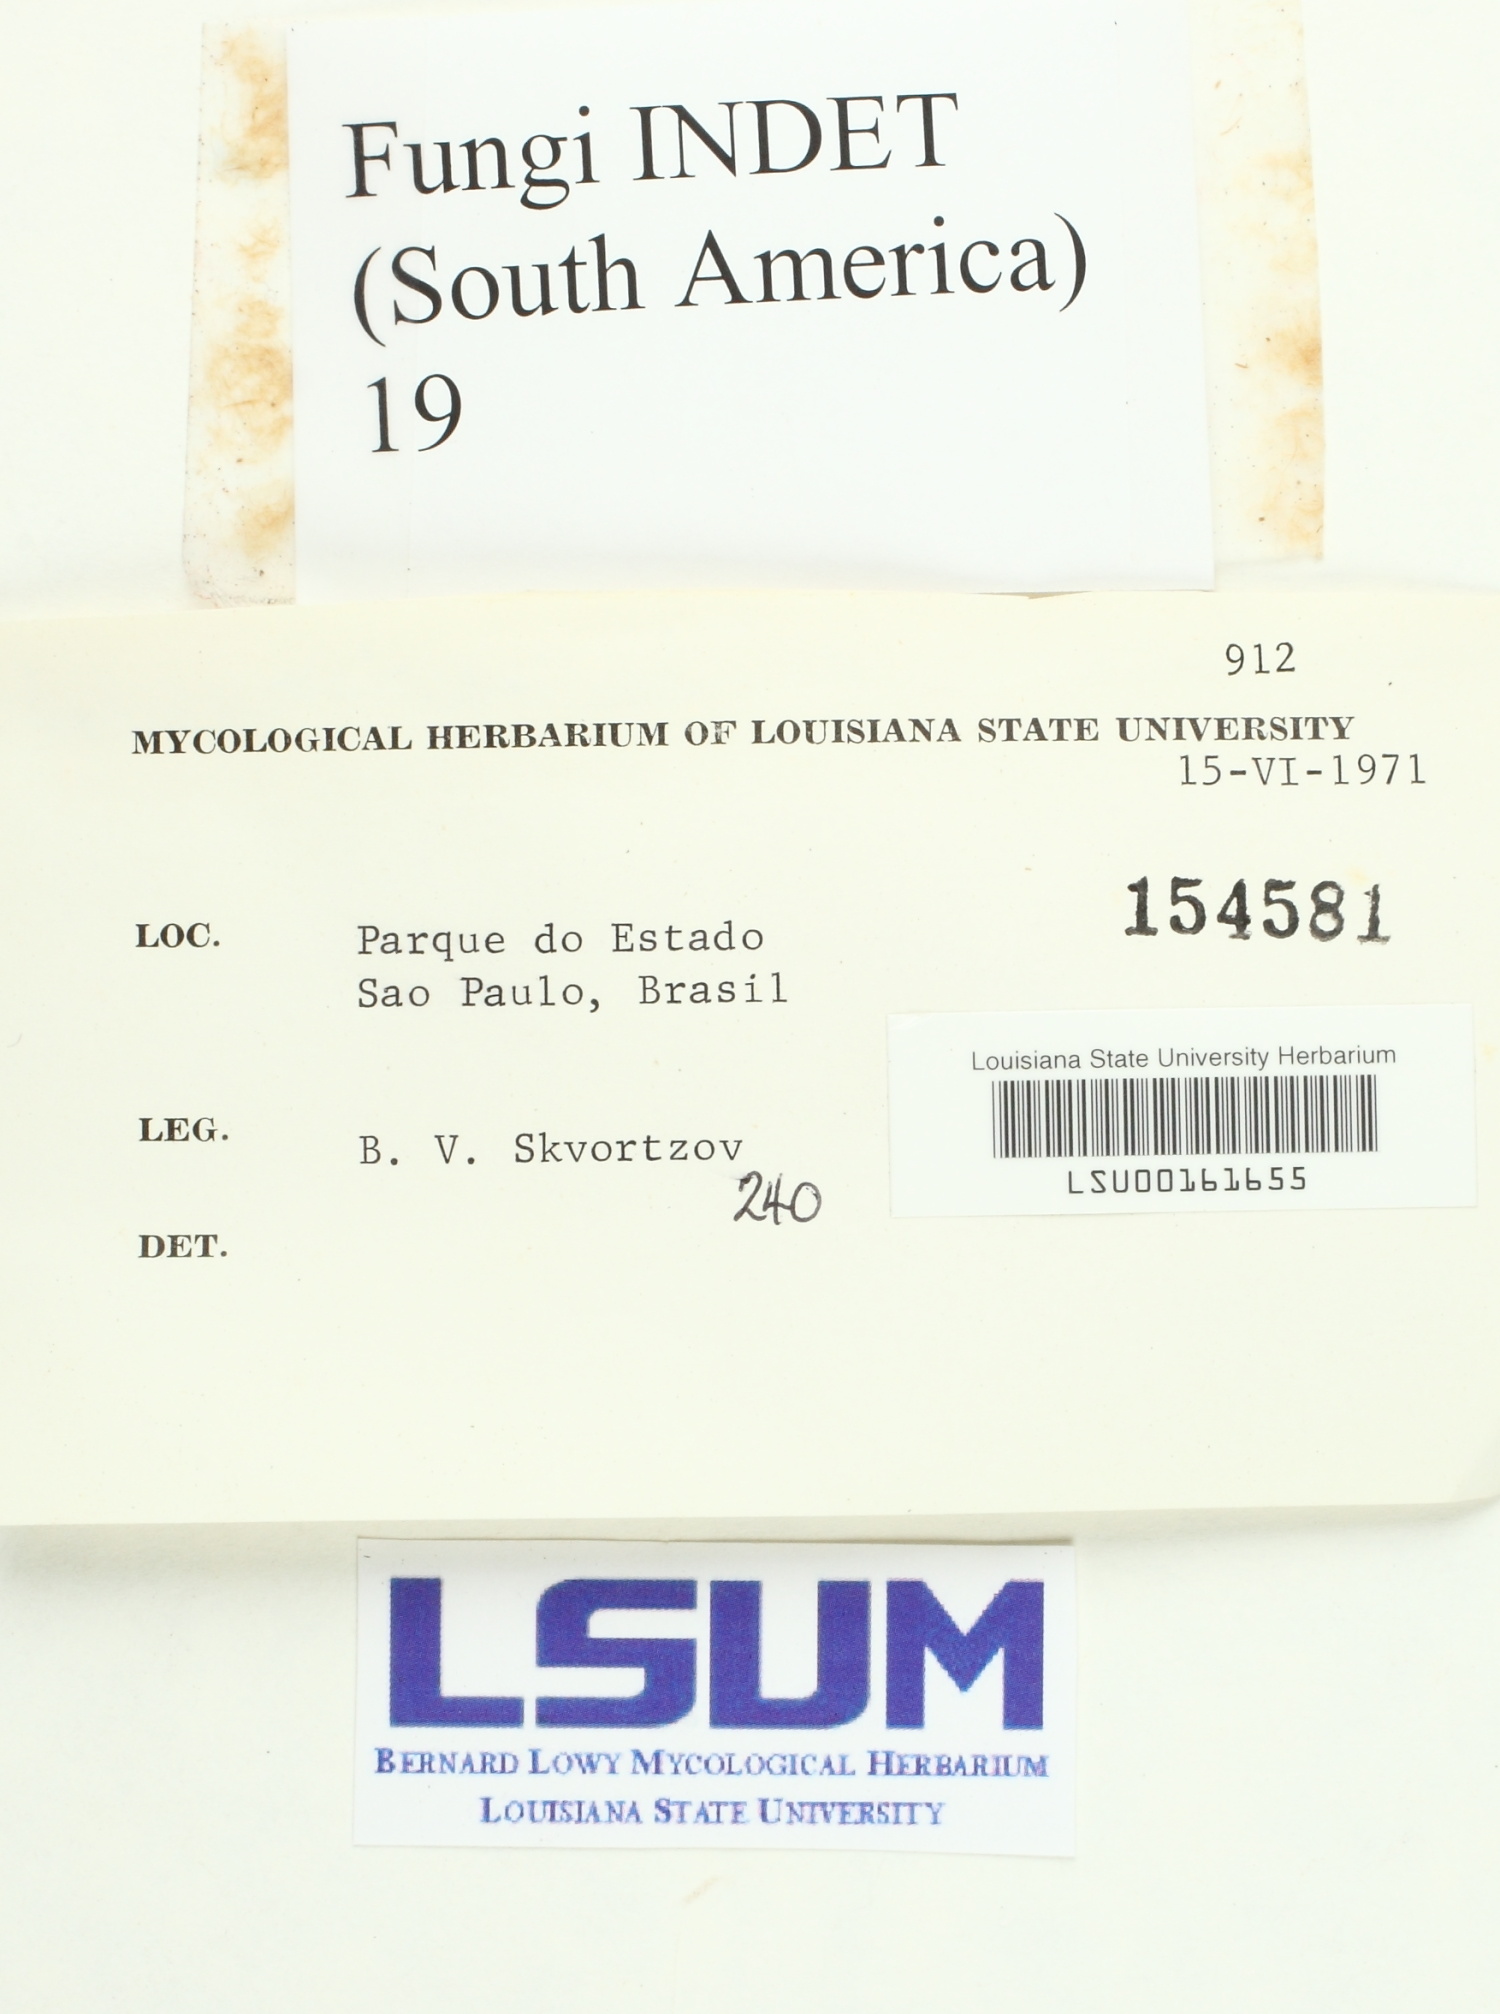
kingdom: Fungi
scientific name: Fungi
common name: Fungi
